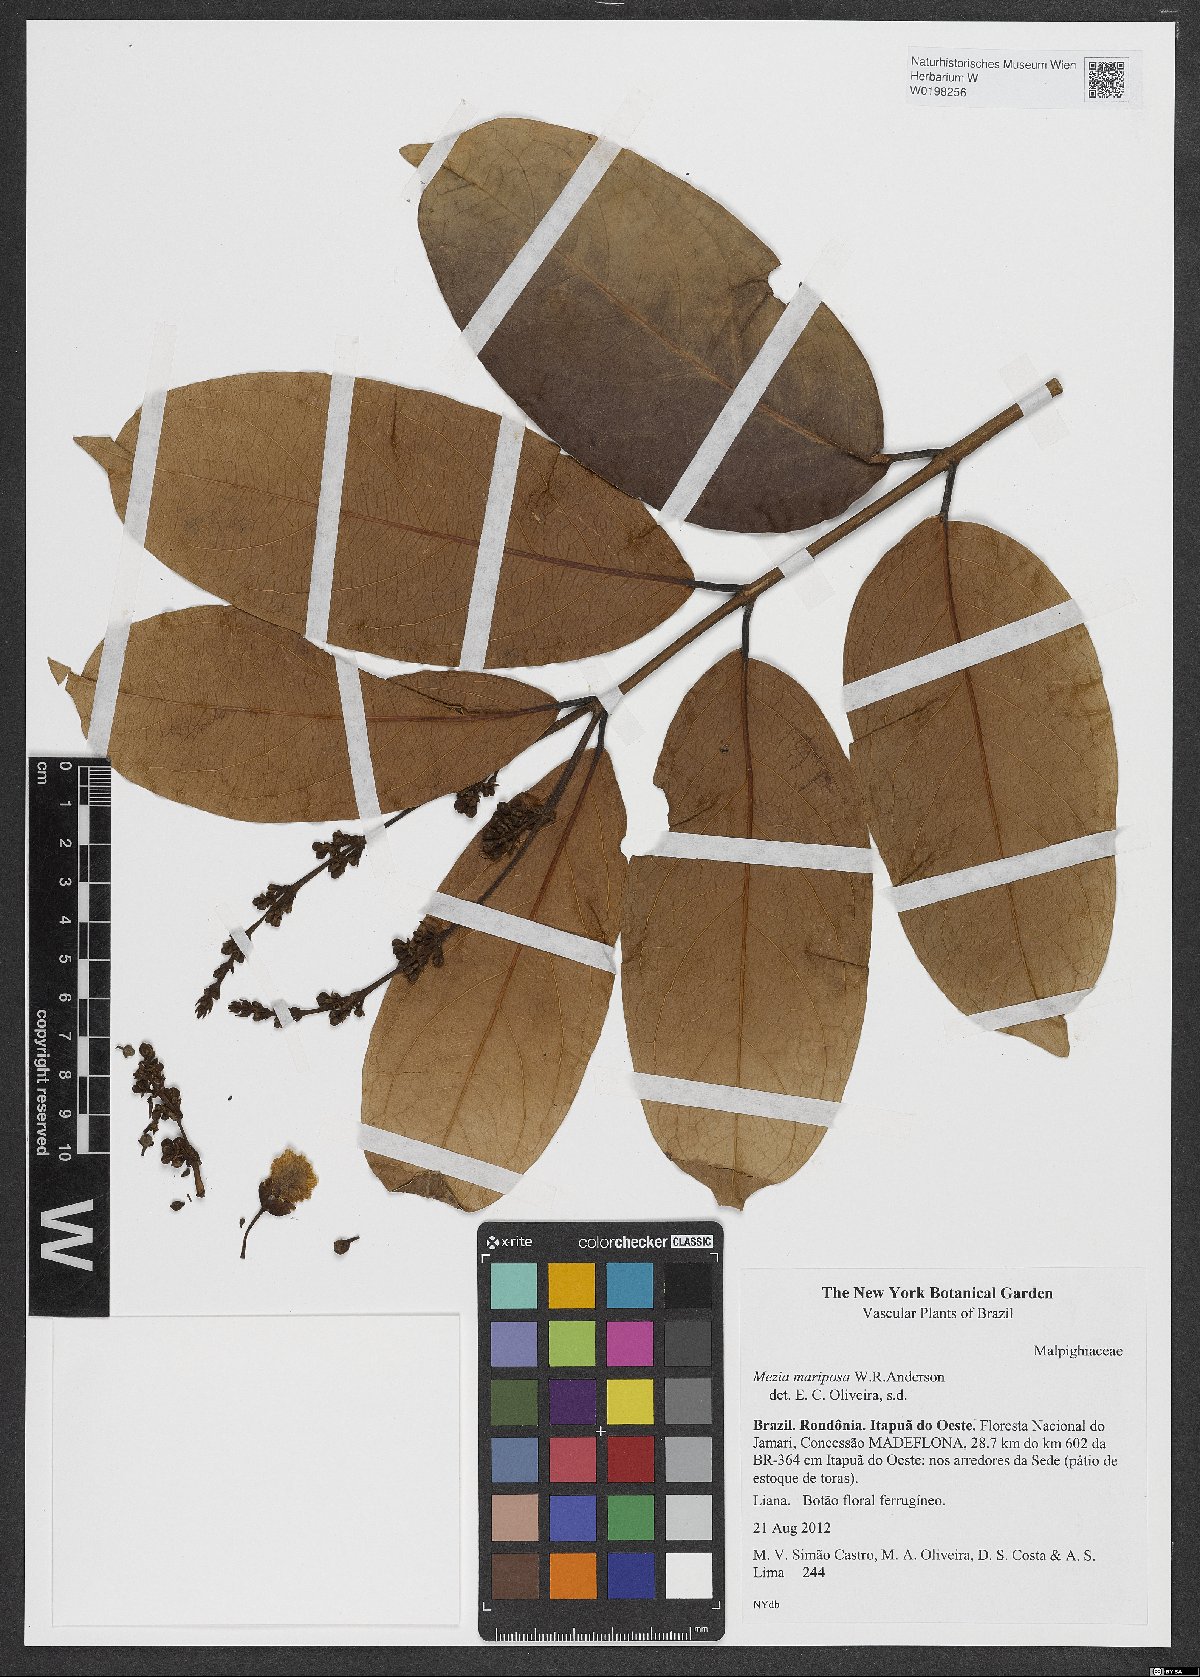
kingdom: Plantae
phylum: Tracheophyta
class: Magnoliopsida
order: Malpighiales
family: Malpighiaceae
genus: Mezia
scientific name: Mezia mariposa
